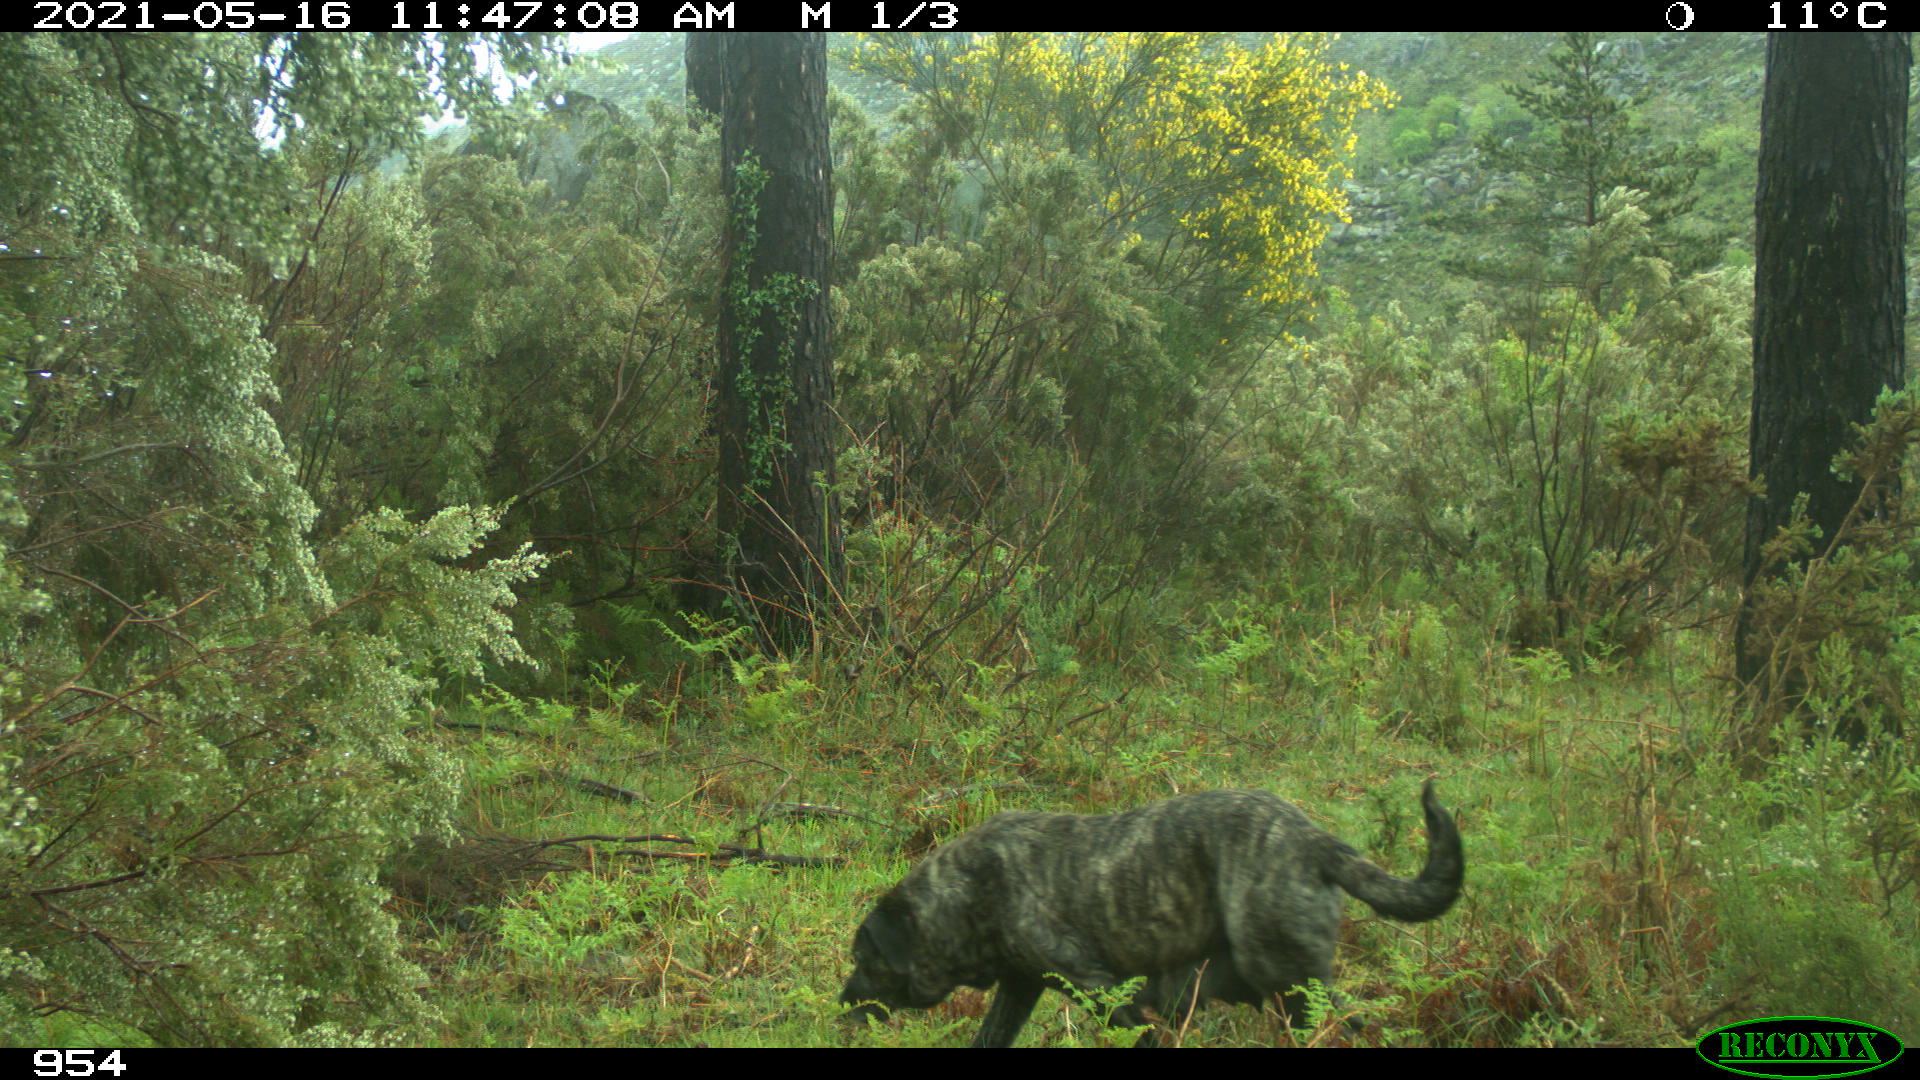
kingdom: Animalia
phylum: Chordata
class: Mammalia
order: Carnivora
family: Canidae
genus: Canis
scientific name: Canis lupus
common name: Gray wolf
